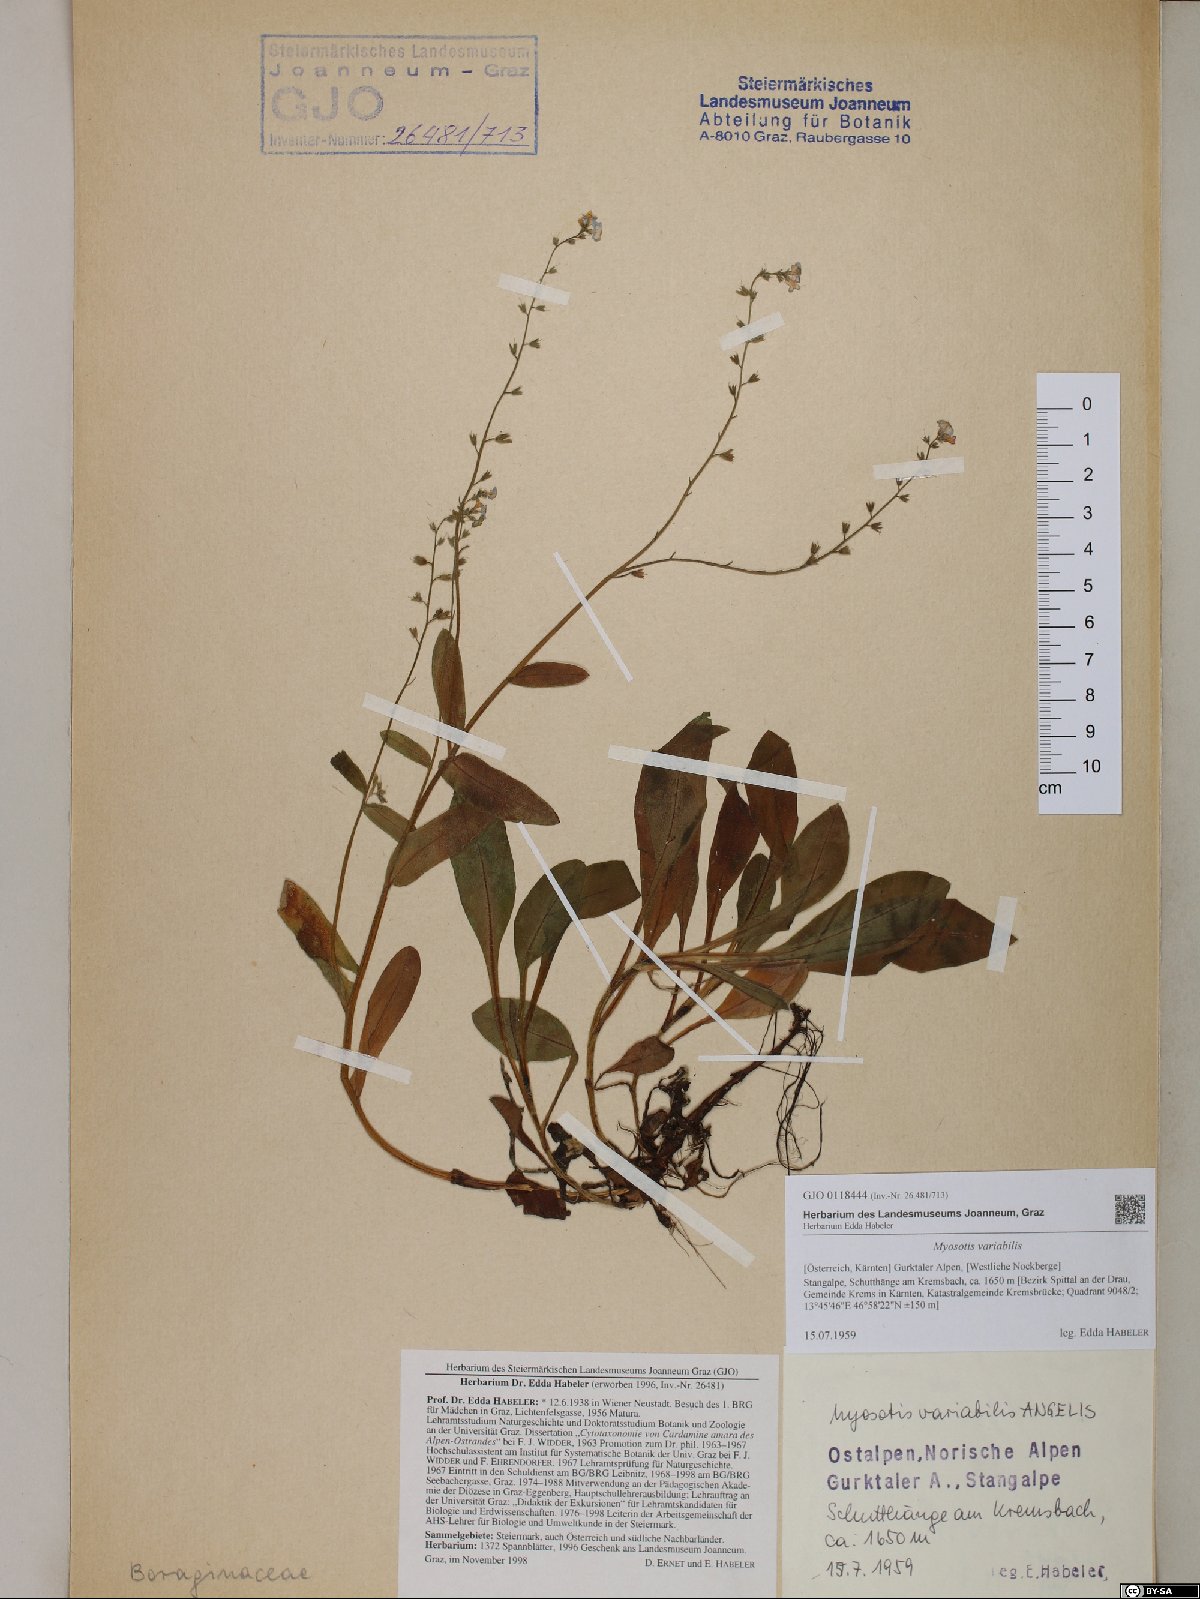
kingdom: Plantae
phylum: Tracheophyta
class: Magnoliopsida
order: Boraginales
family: Boraginaceae
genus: Myosotis
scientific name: Myosotis decumbens
